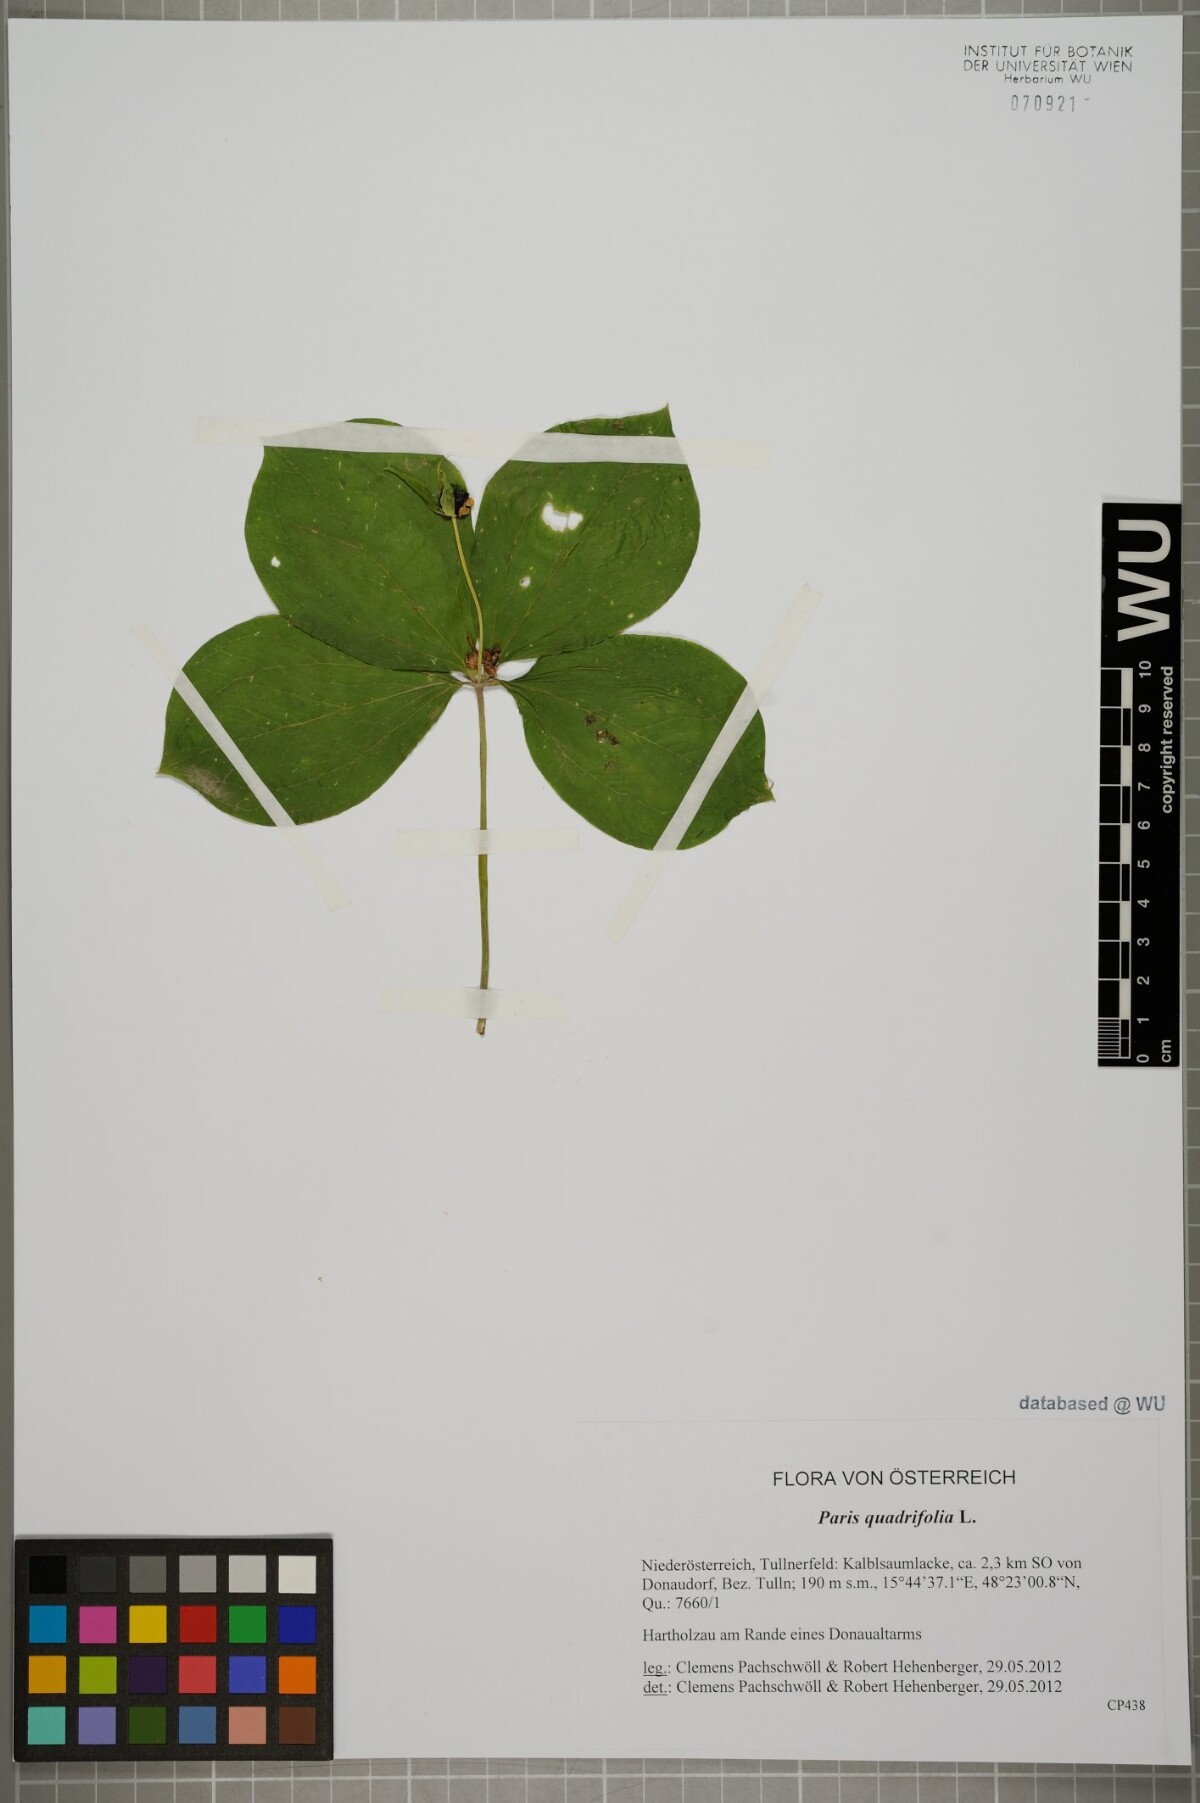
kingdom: Plantae
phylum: Tracheophyta
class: Liliopsida
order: Liliales
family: Melanthiaceae
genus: Paris
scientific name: Paris quadrifolia
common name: Herb-paris
